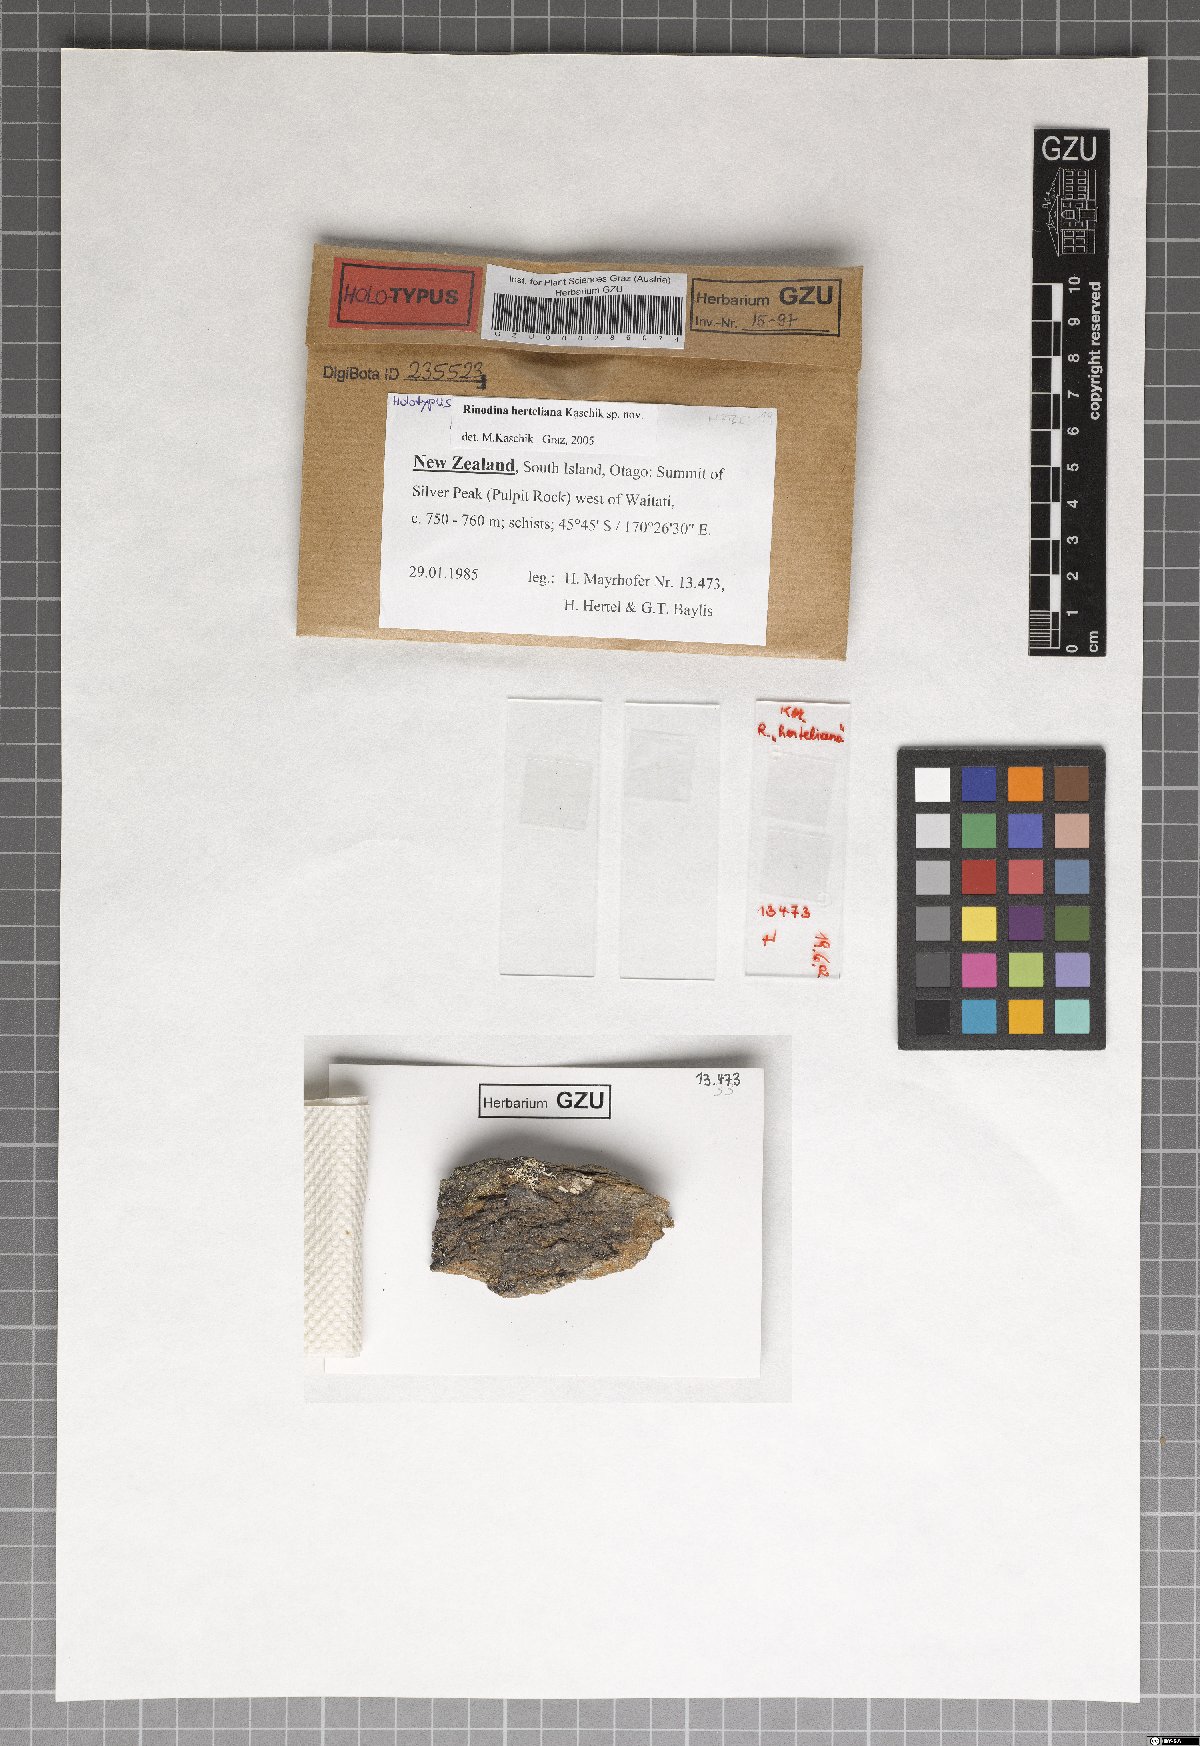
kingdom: Fungi
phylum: Ascomycota
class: Lecanoromycetes
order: Caliciales
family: Physciaceae
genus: Johnsheardia
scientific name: Johnsheardia herteliana
